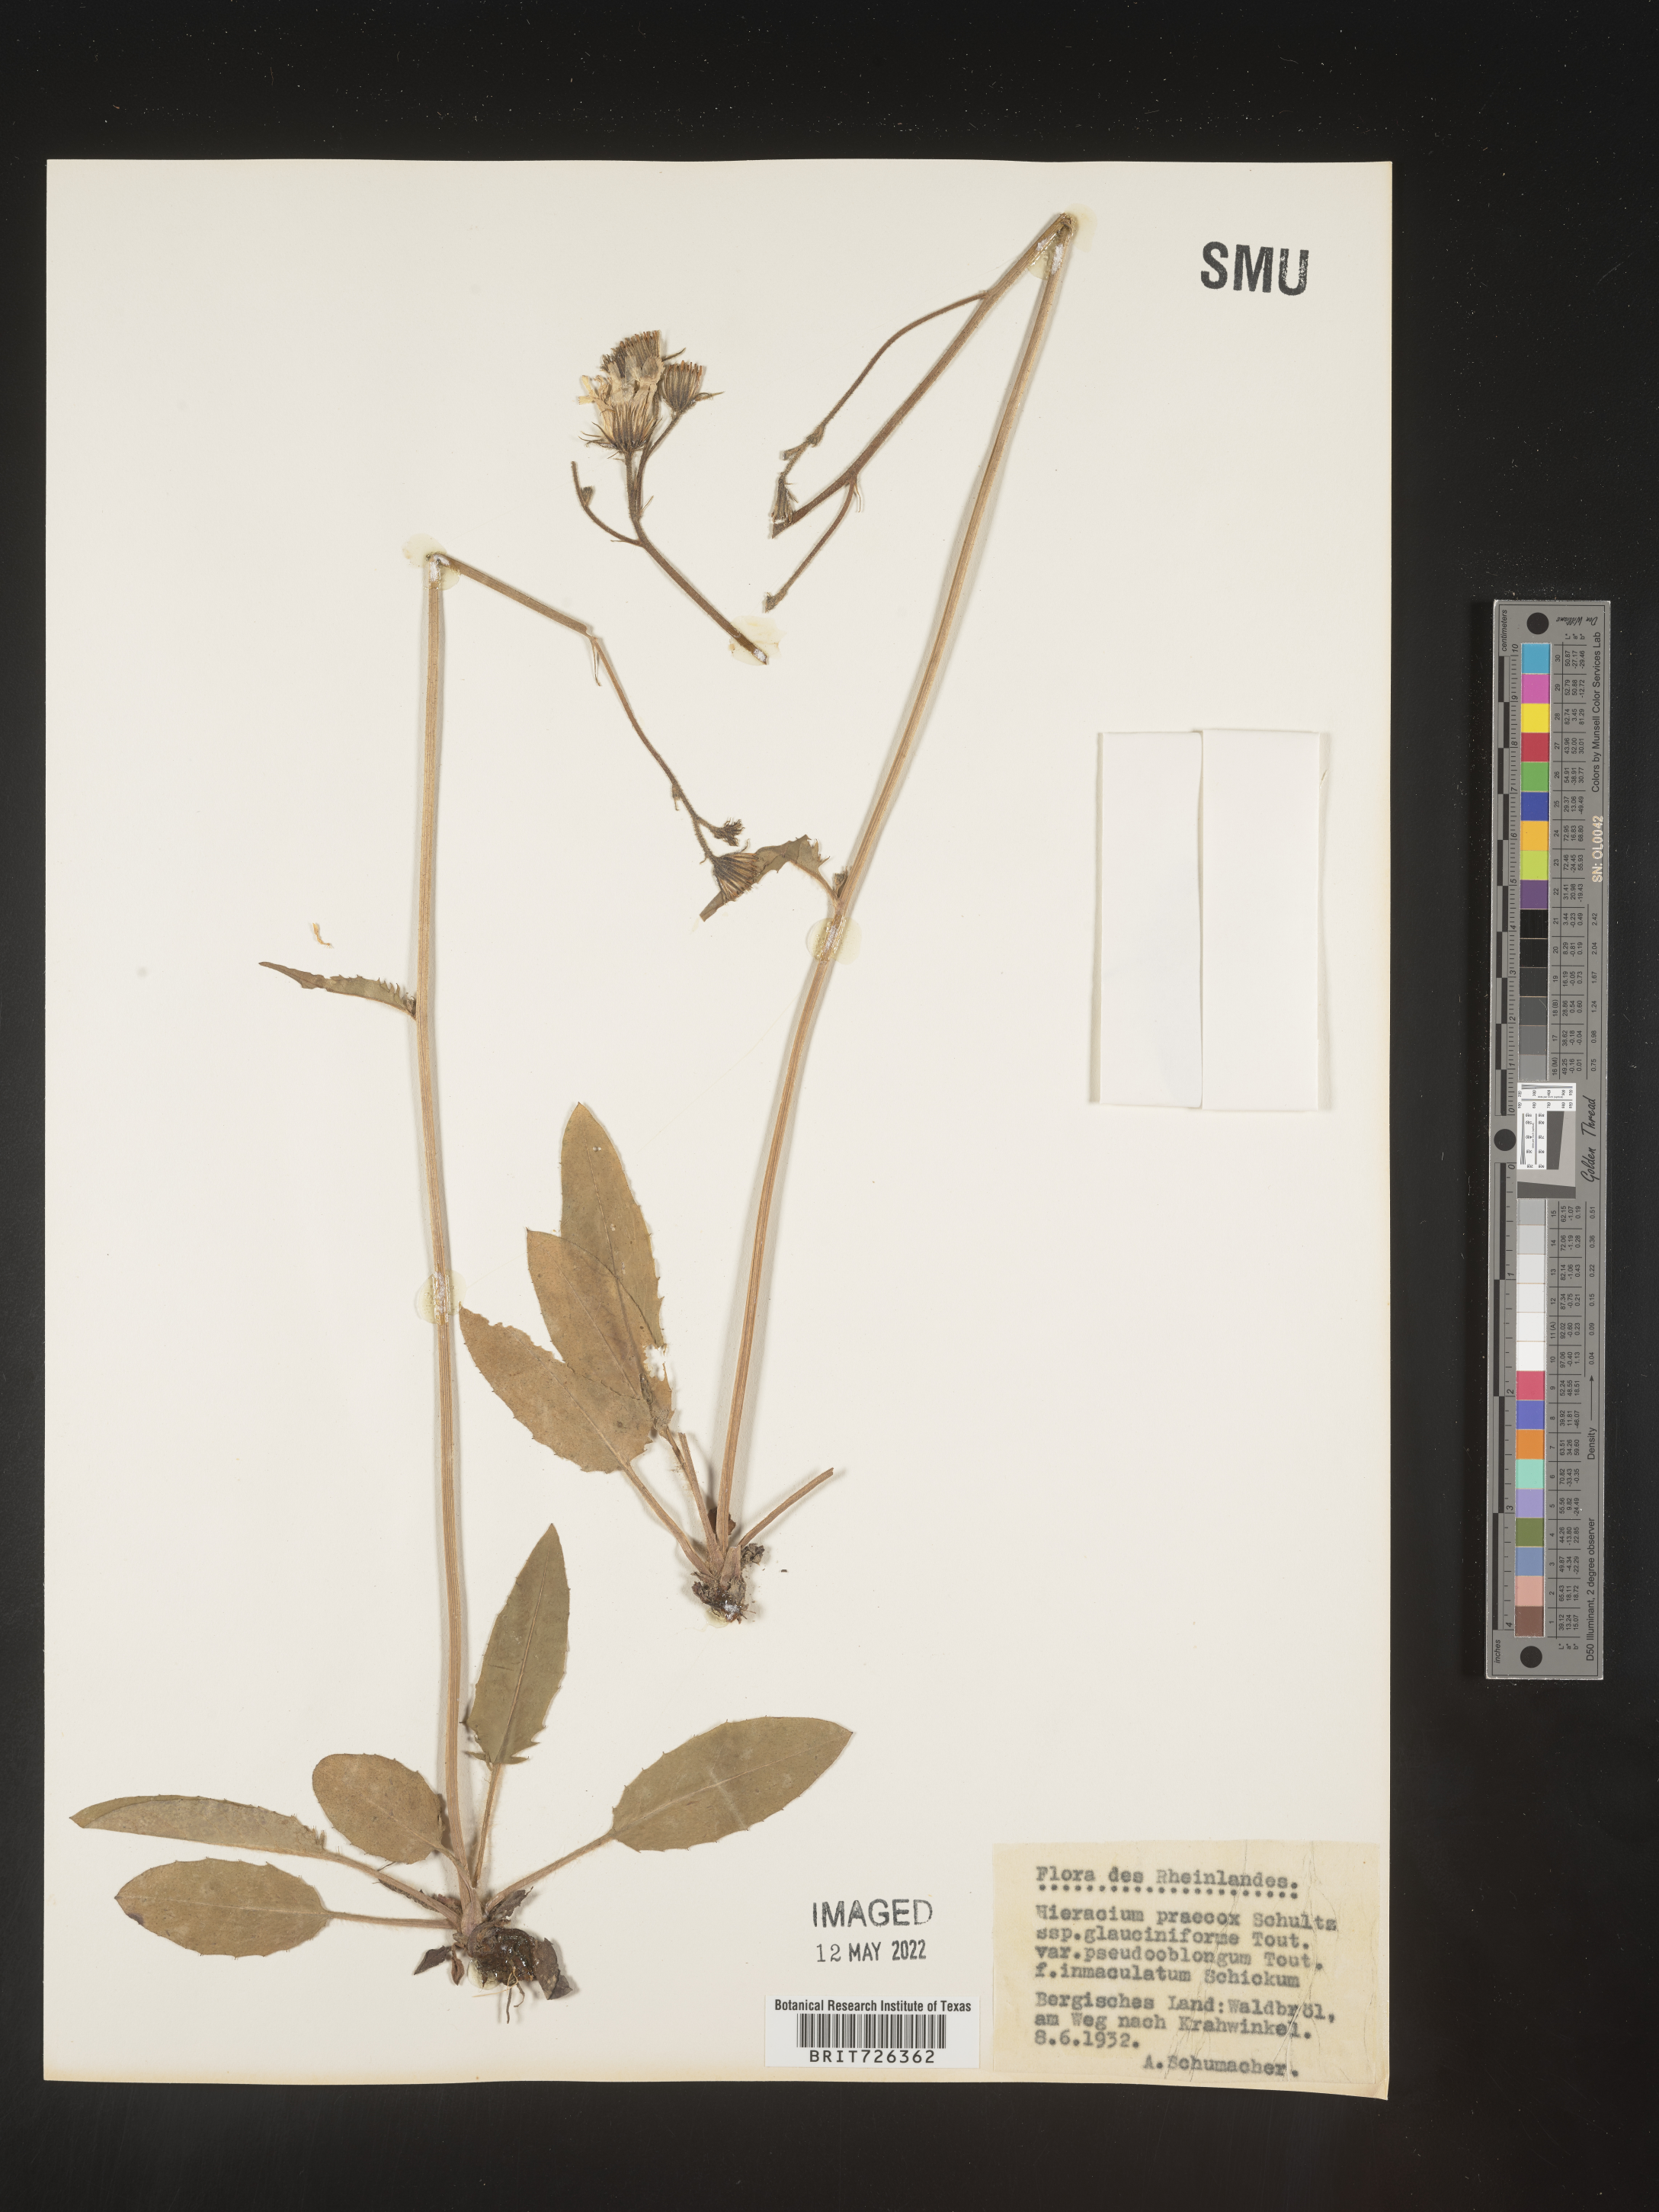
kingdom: Plantae
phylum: Tracheophyta
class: Magnoliopsida
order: Asterales
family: Asteraceae
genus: Hieracium
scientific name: Hieracium
